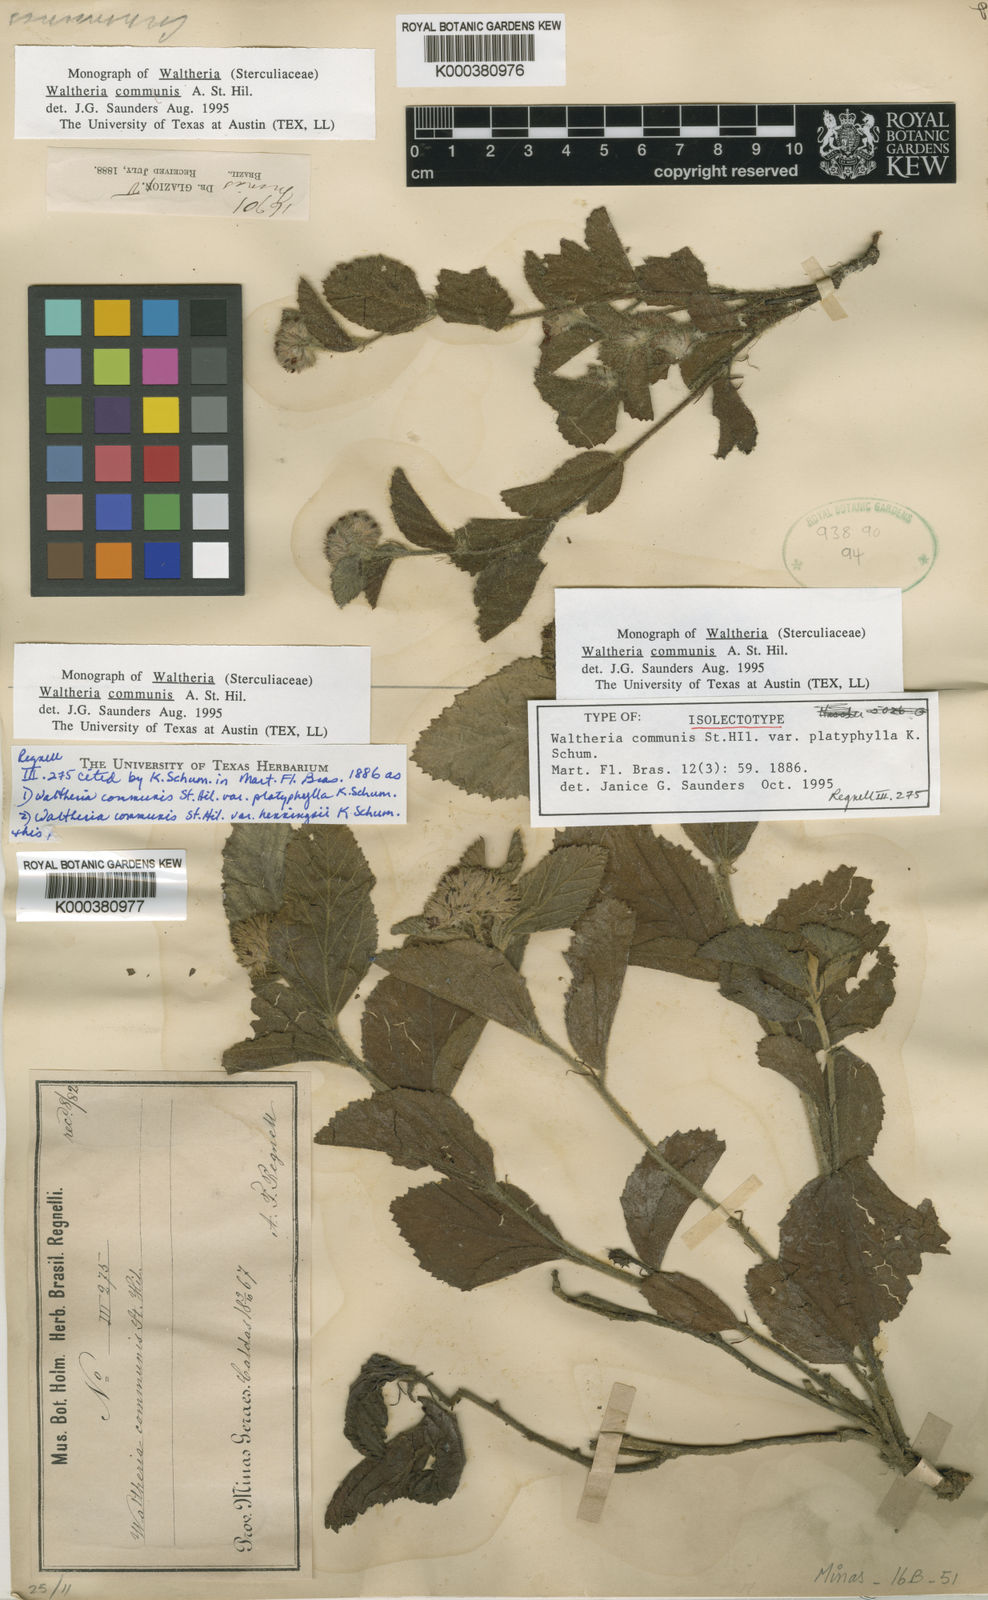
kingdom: Plantae
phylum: Tracheophyta
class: Magnoliopsida
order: Malvales
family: Malvaceae
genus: Waltheria
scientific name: Waltheria communis
